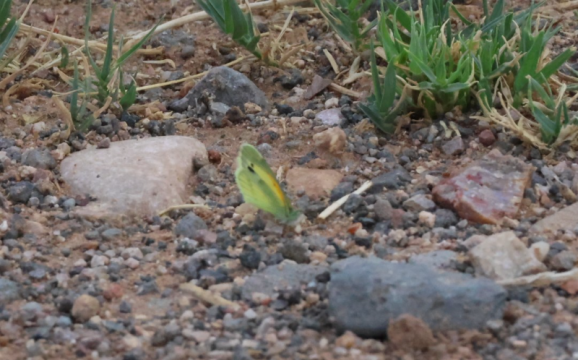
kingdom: Animalia
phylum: Arthropoda
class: Insecta
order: Lepidoptera
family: Pieridae
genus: Nathalis
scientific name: Nathalis iole
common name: Dainty Sulphur
